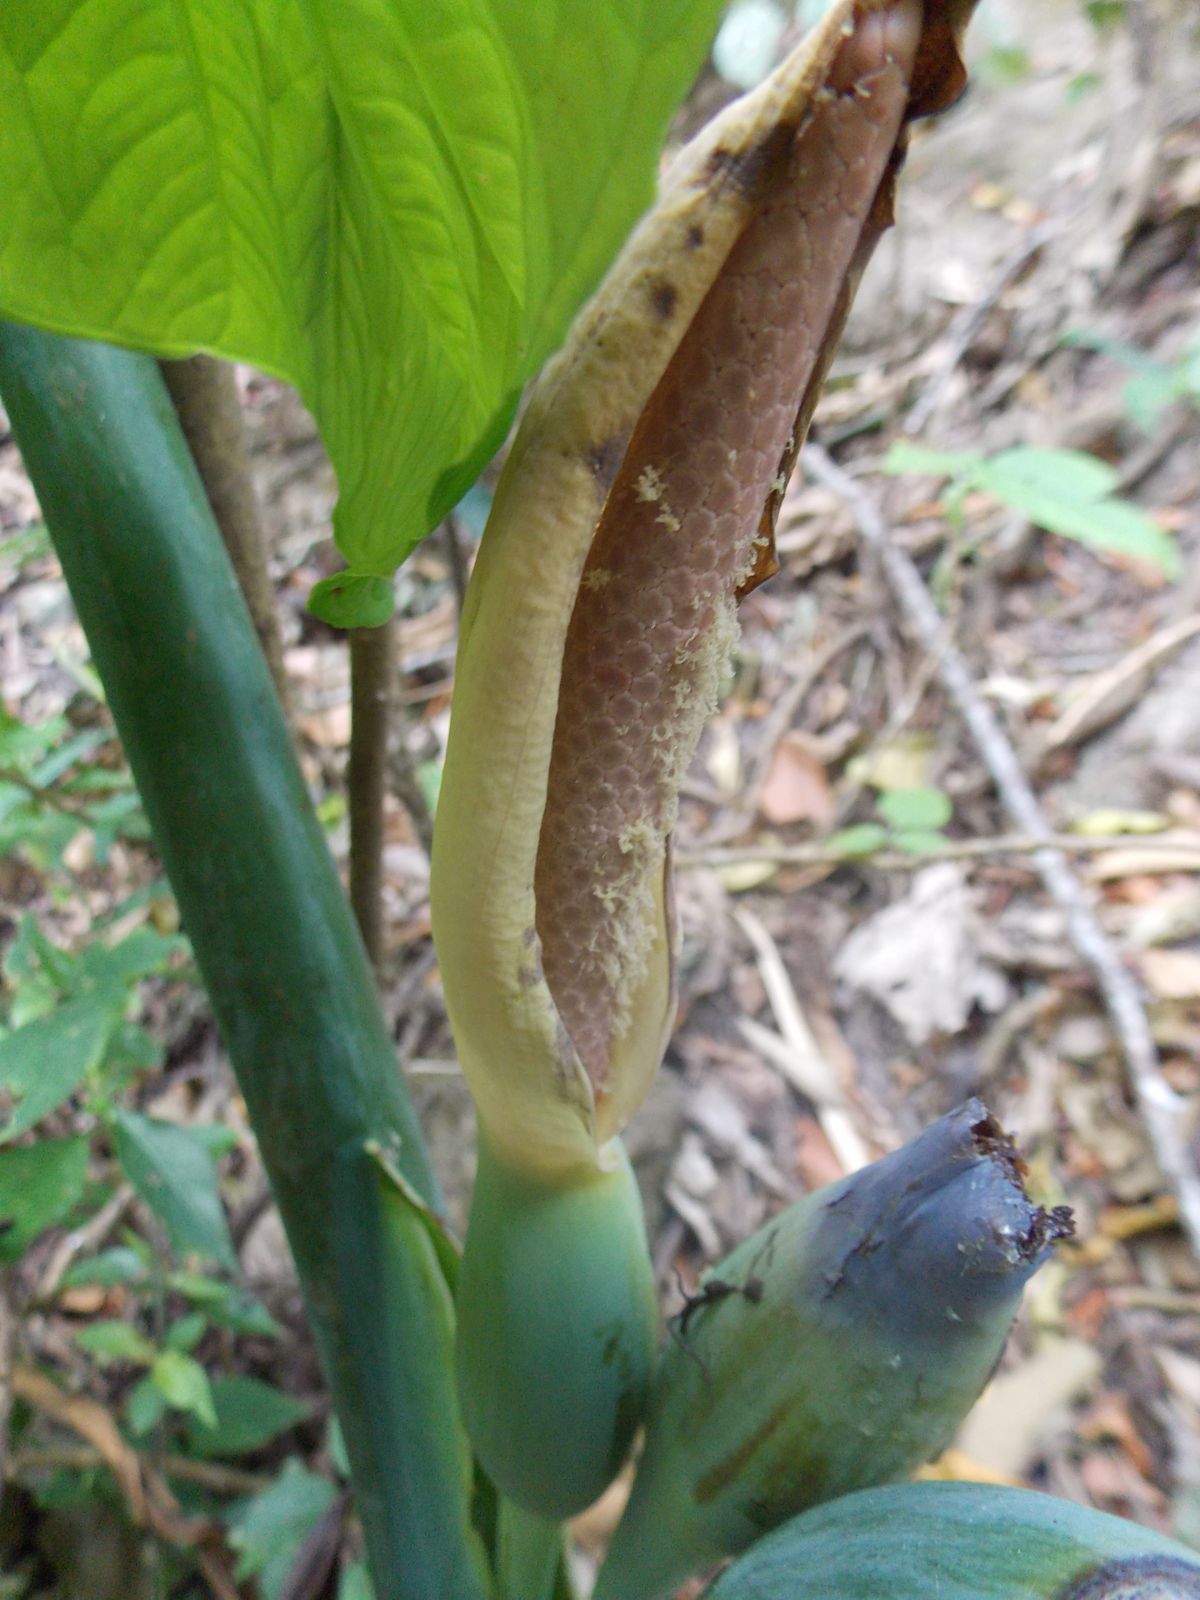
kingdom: Plantae
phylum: Tracheophyta
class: Liliopsida
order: Alismatales
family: Araceae
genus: Xanthosoma
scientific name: Xanthosoma
